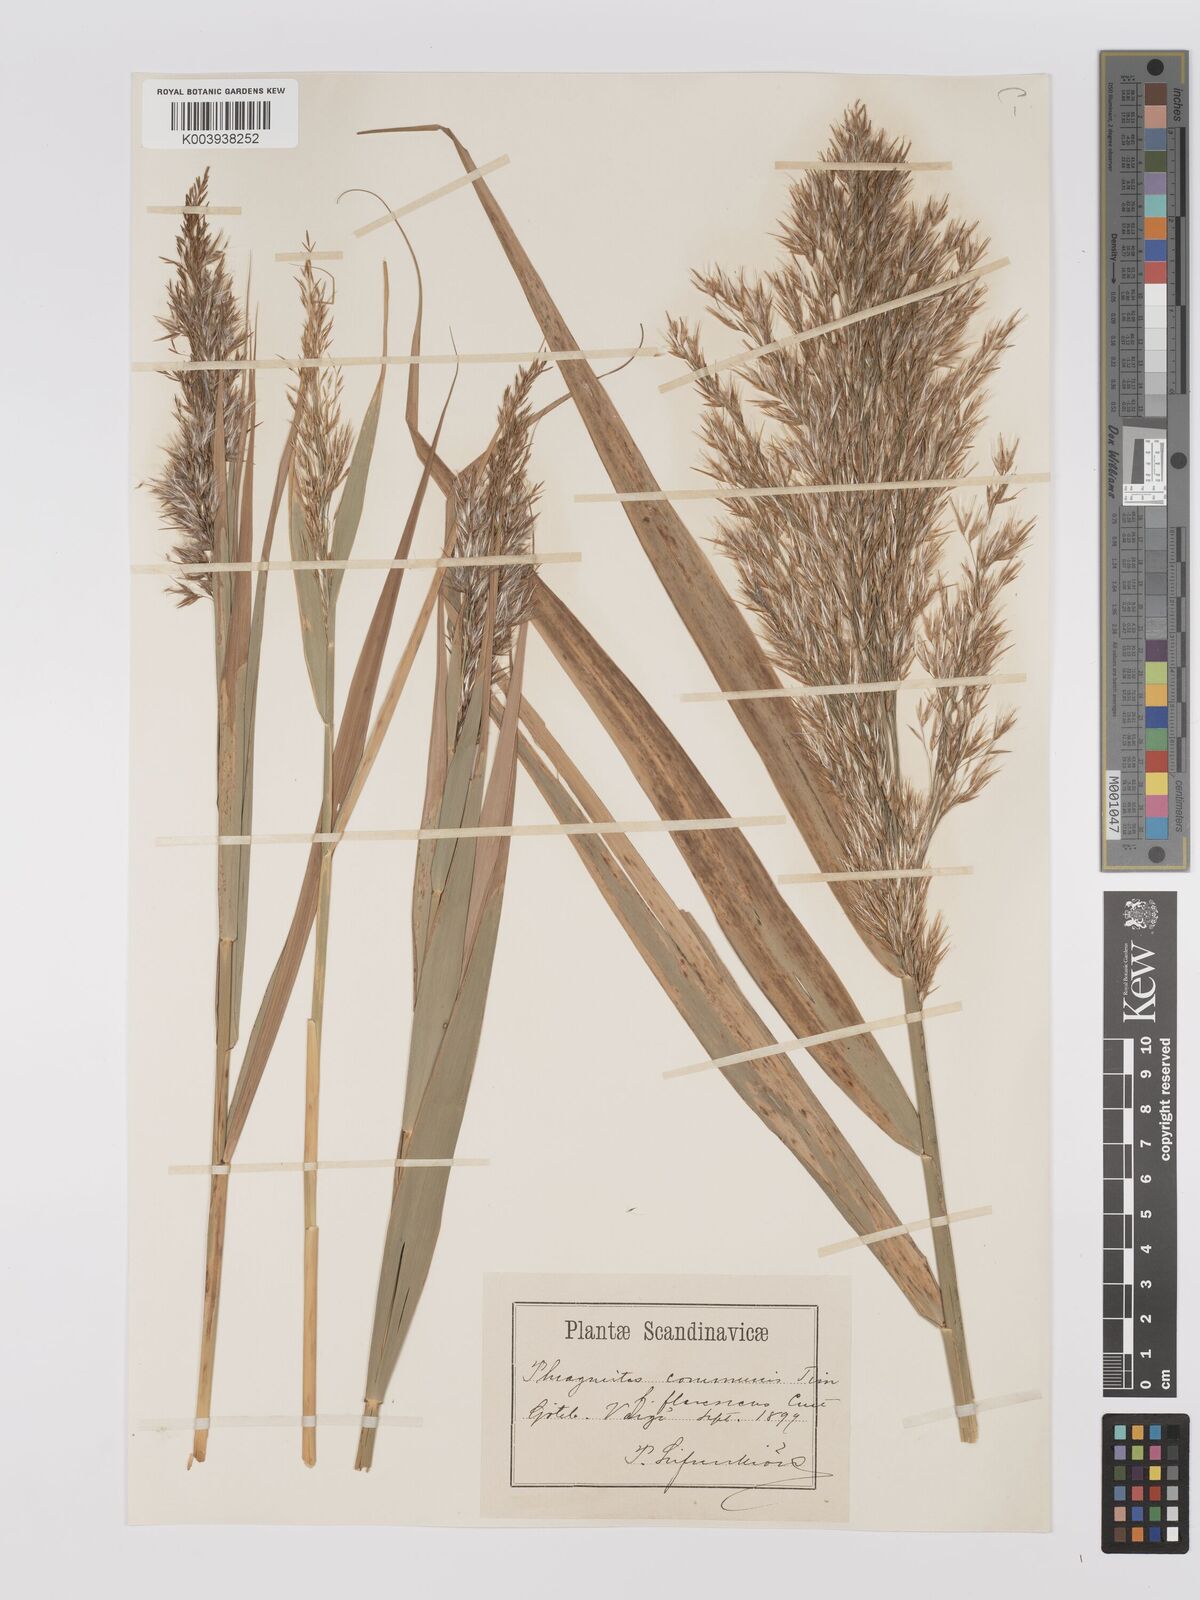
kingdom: Plantae
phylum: Tracheophyta
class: Liliopsida
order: Poales
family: Poaceae
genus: Phragmites
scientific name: Phragmites australis
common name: Common reed
